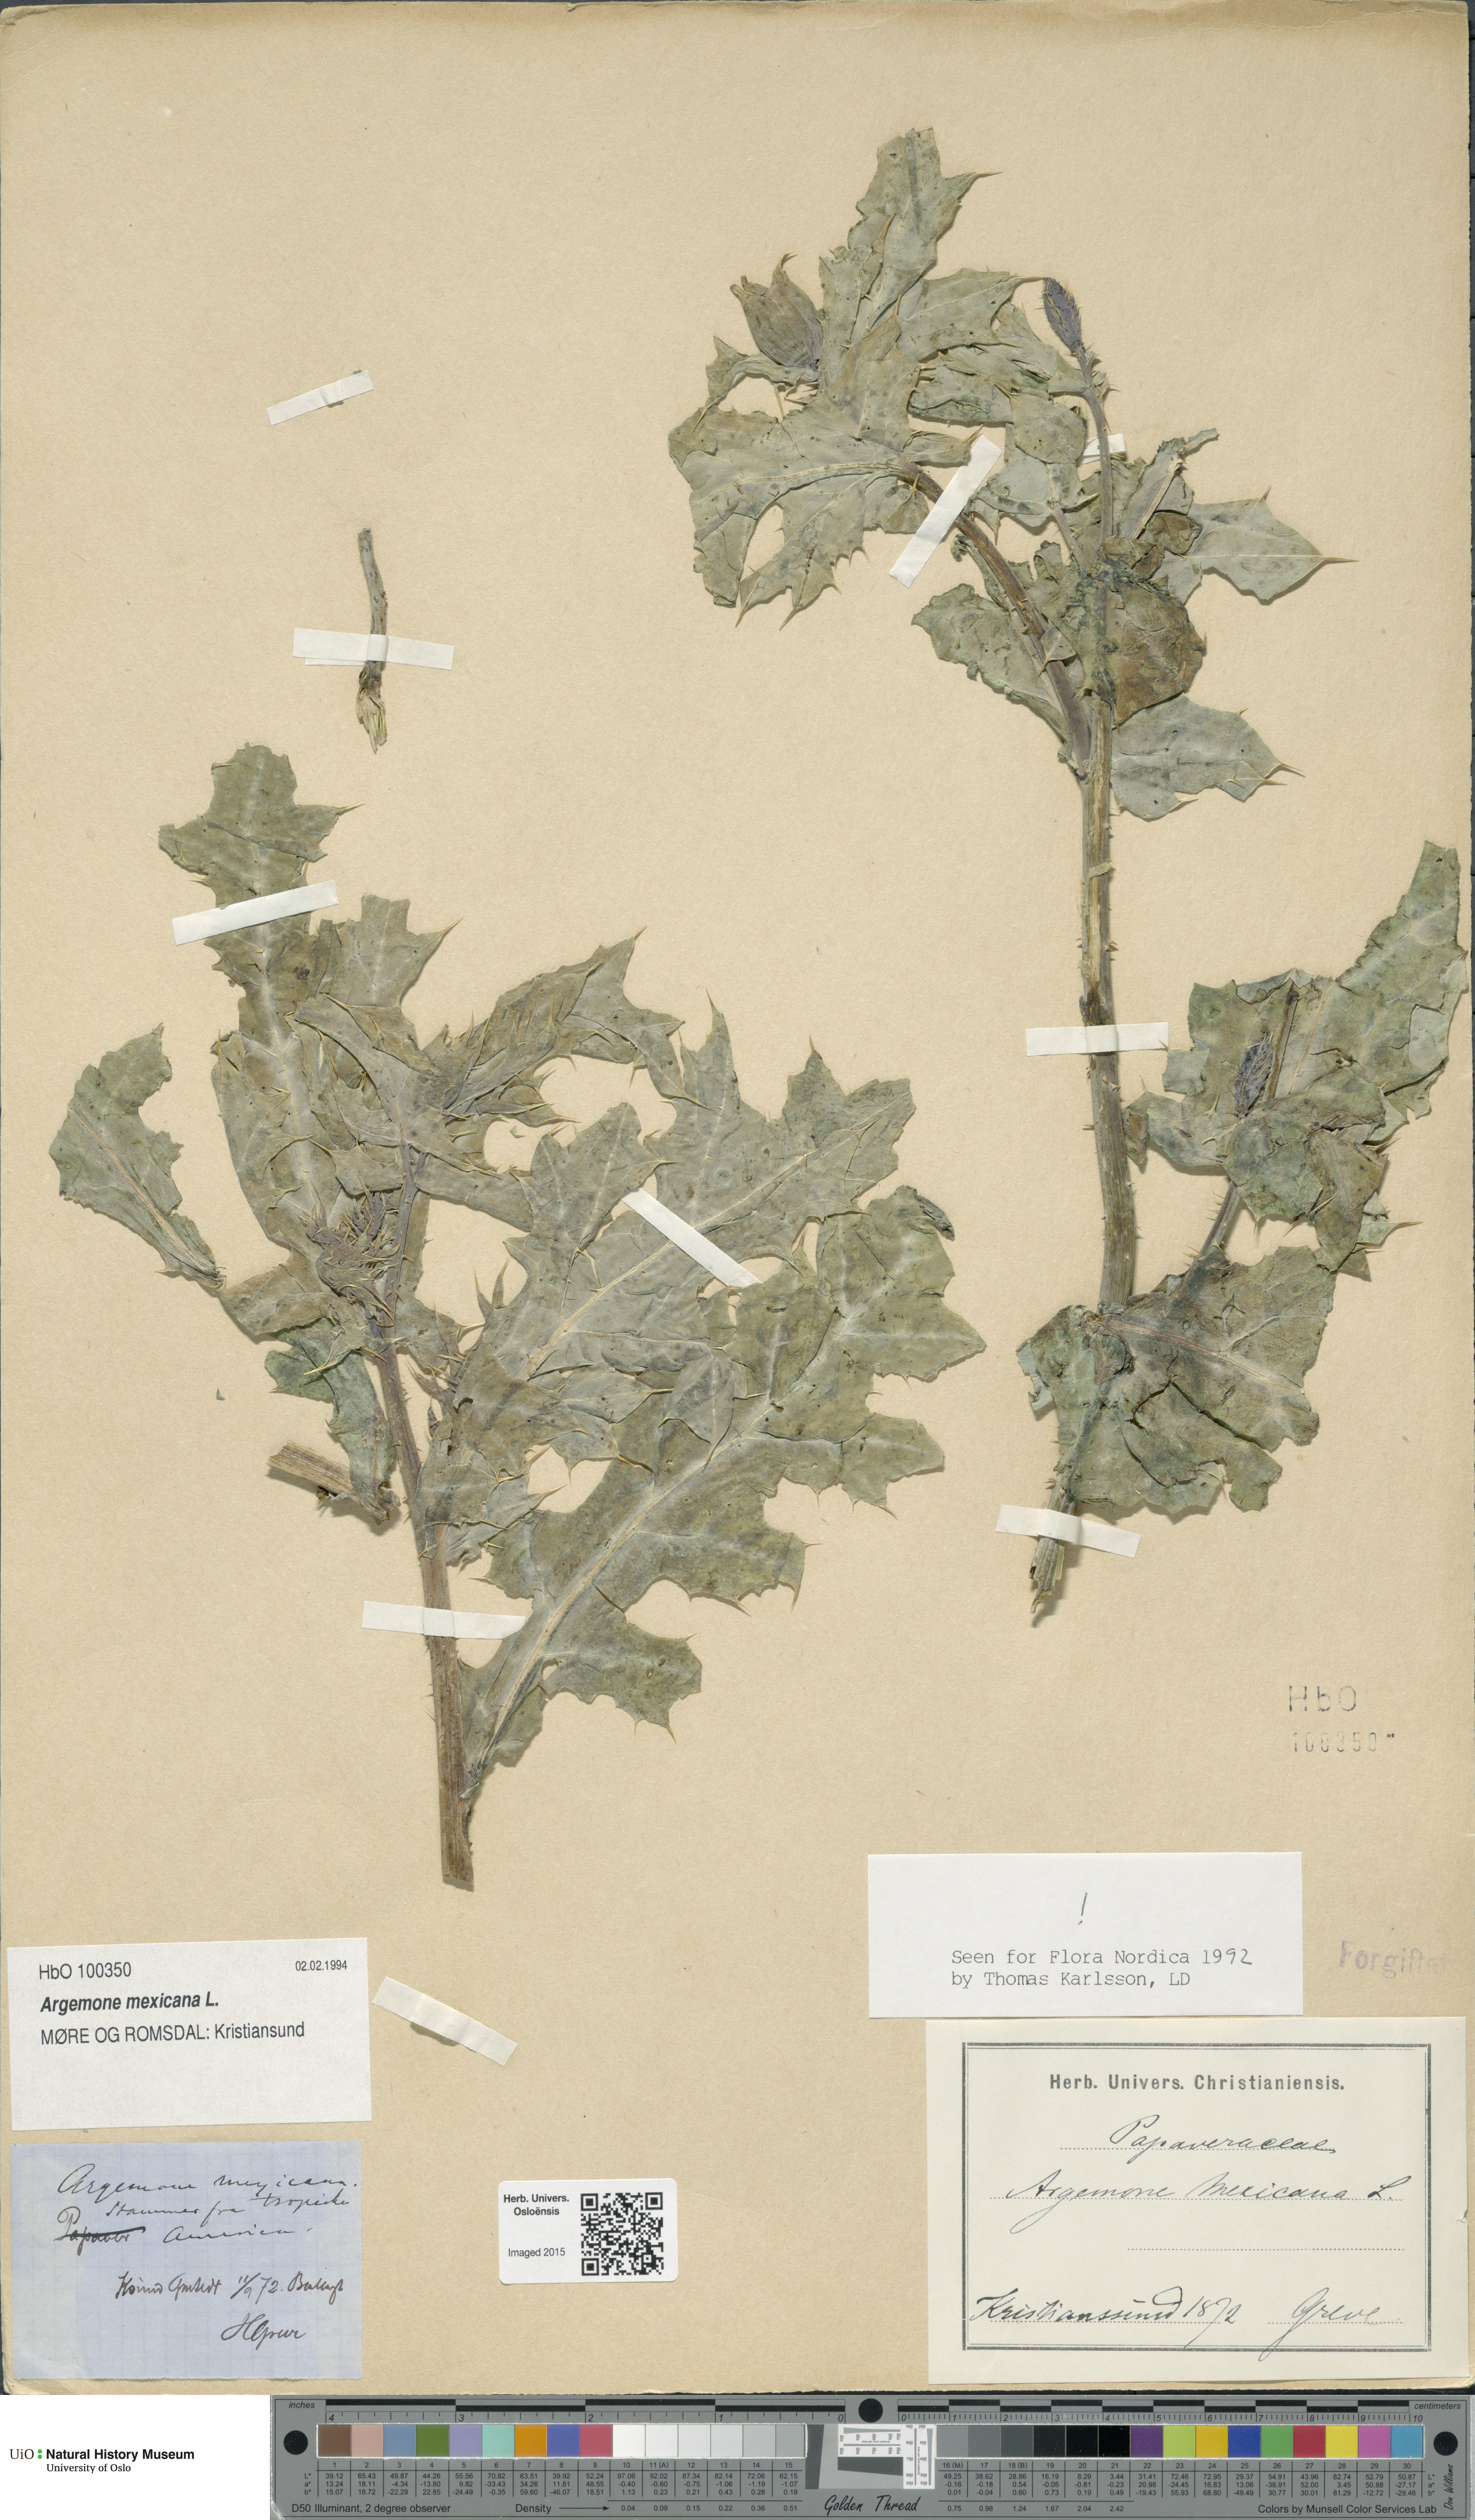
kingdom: Plantae
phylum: Tracheophyta
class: Magnoliopsida
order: Ranunculales
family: Papaveraceae
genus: Argemone
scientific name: Argemone mexicana
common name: Mexican poppy
